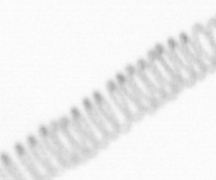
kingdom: Chromista
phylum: Ochrophyta
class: Bacillariophyceae
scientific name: Bacillariophyceae
